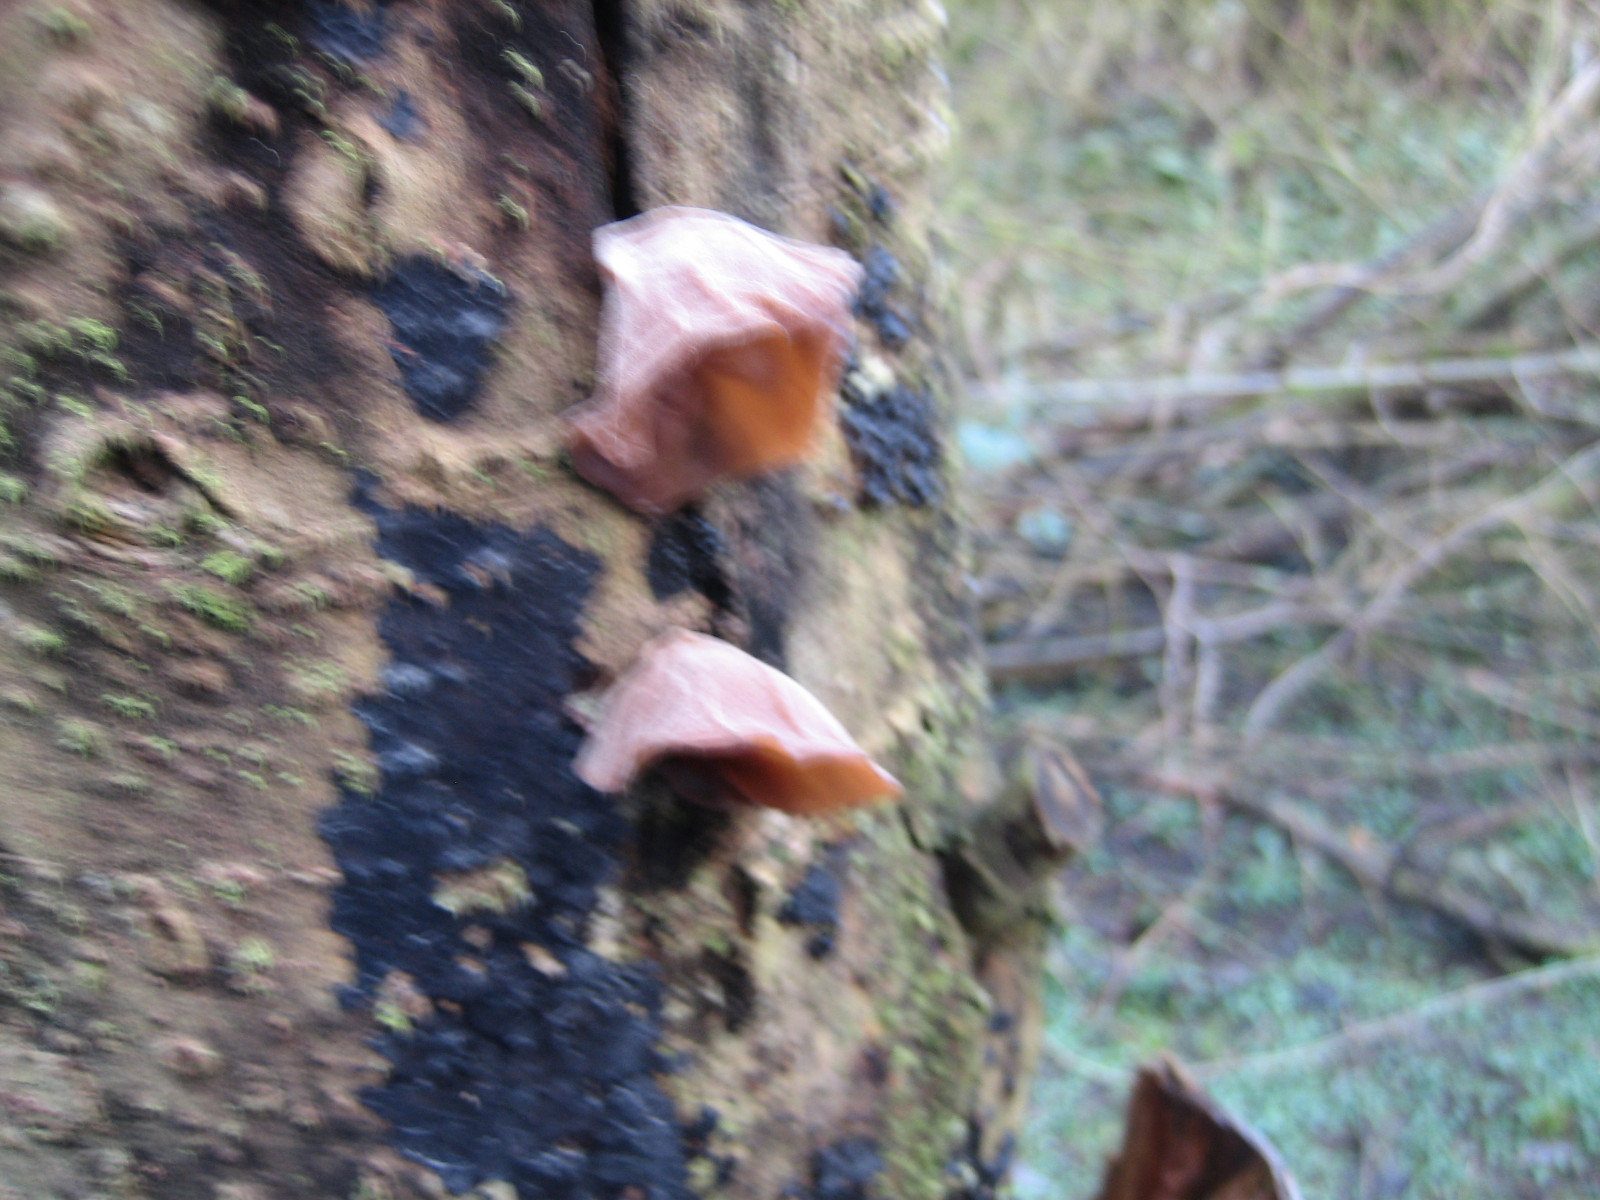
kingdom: Fungi
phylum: Basidiomycota
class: Agaricomycetes
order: Auriculariales
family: Auriculariaceae
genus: Auricularia
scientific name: Auricularia auricula-judae
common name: almindelig judasøre
